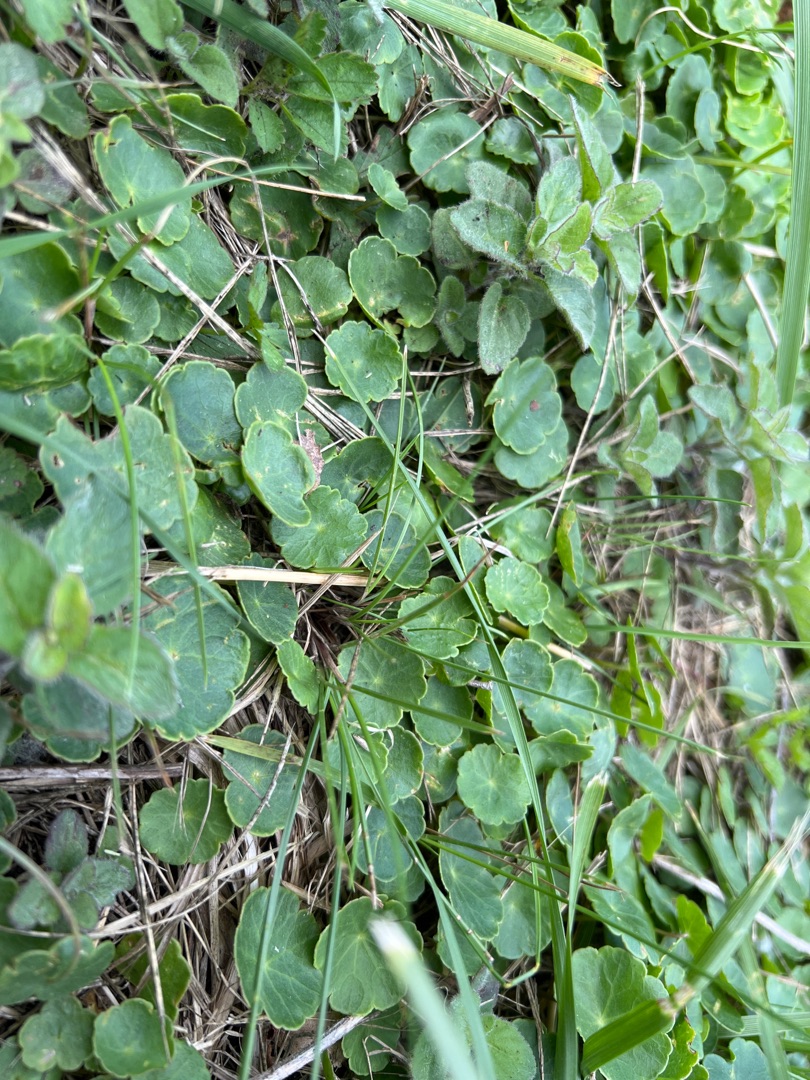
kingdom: Plantae
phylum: Tracheophyta
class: Magnoliopsida
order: Apiales
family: Araliaceae
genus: Hydrocotyle
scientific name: Hydrocotyle vulgaris
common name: Vandnavle
